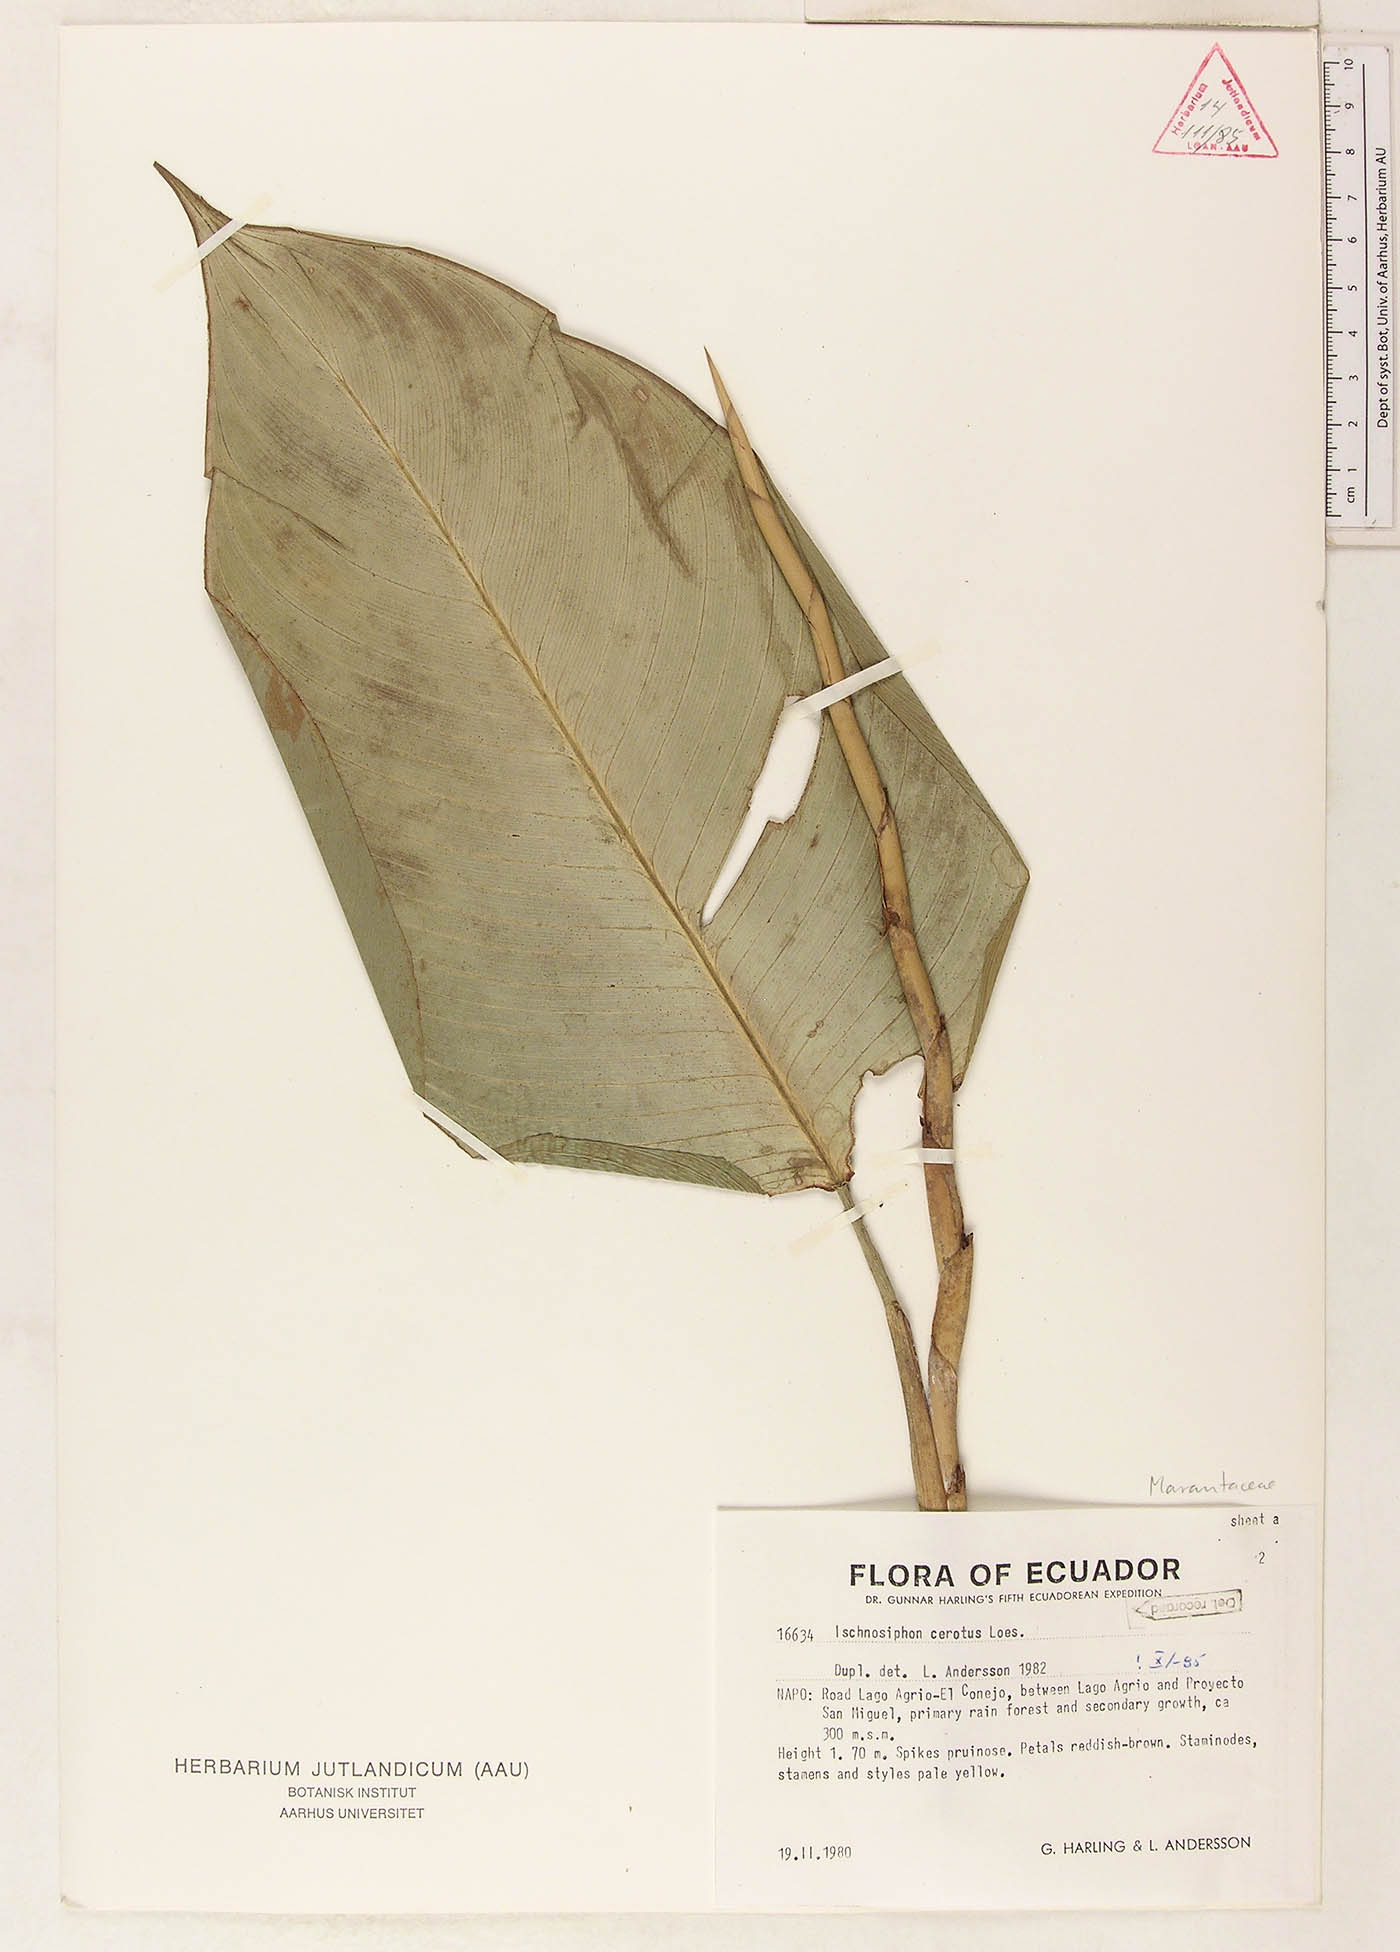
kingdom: Plantae
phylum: Tracheophyta
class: Liliopsida
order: Zingiberales
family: Marantaceae
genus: Ischnosiphon
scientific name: Ischnosiphon cerotus
